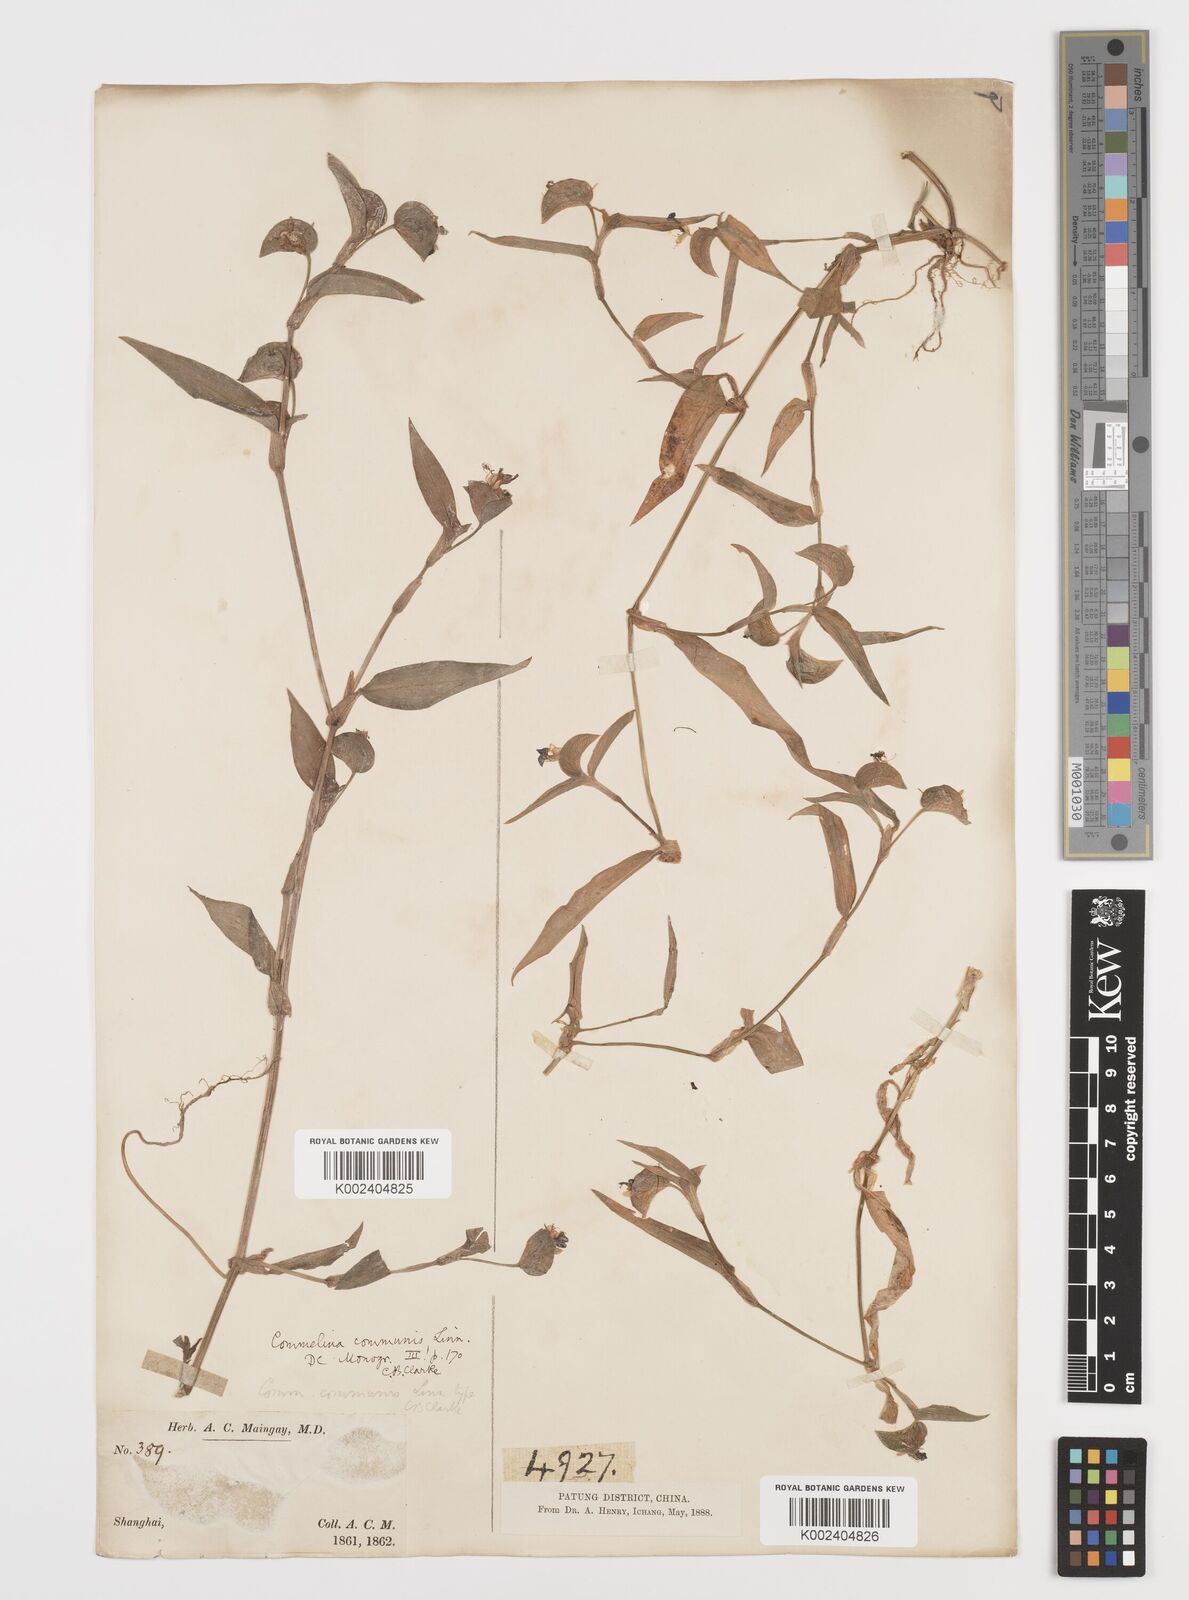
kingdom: Plantae
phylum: Tracheophyta
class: Liliopsida
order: Commelinales
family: Commelinaceae
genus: Commelina
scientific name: Commelina communis
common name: Asiatic dayflower
